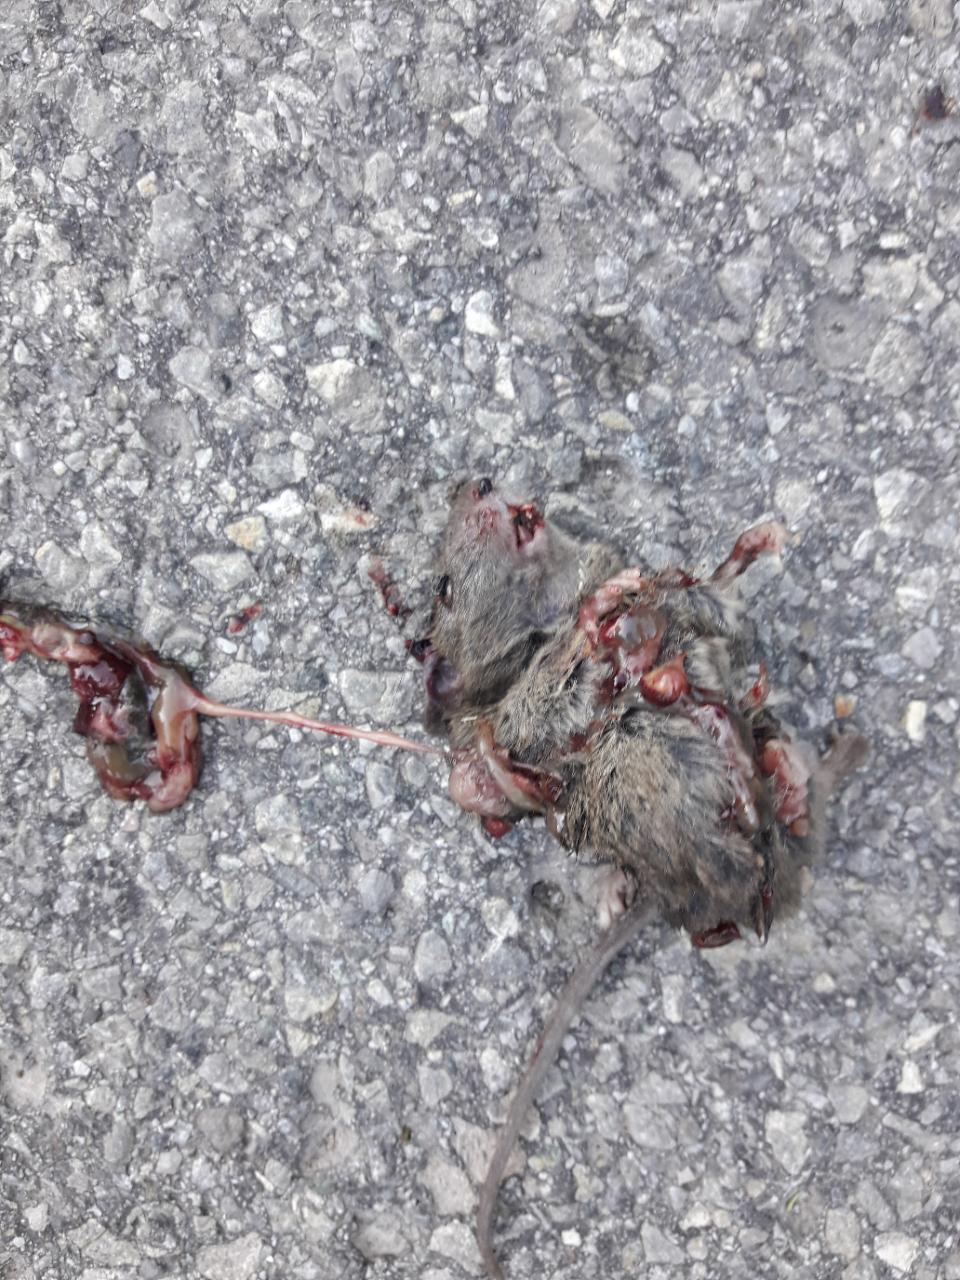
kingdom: Animalia
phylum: Chordata
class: Mammalia
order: Rodentia
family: Muridae
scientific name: Muridae
